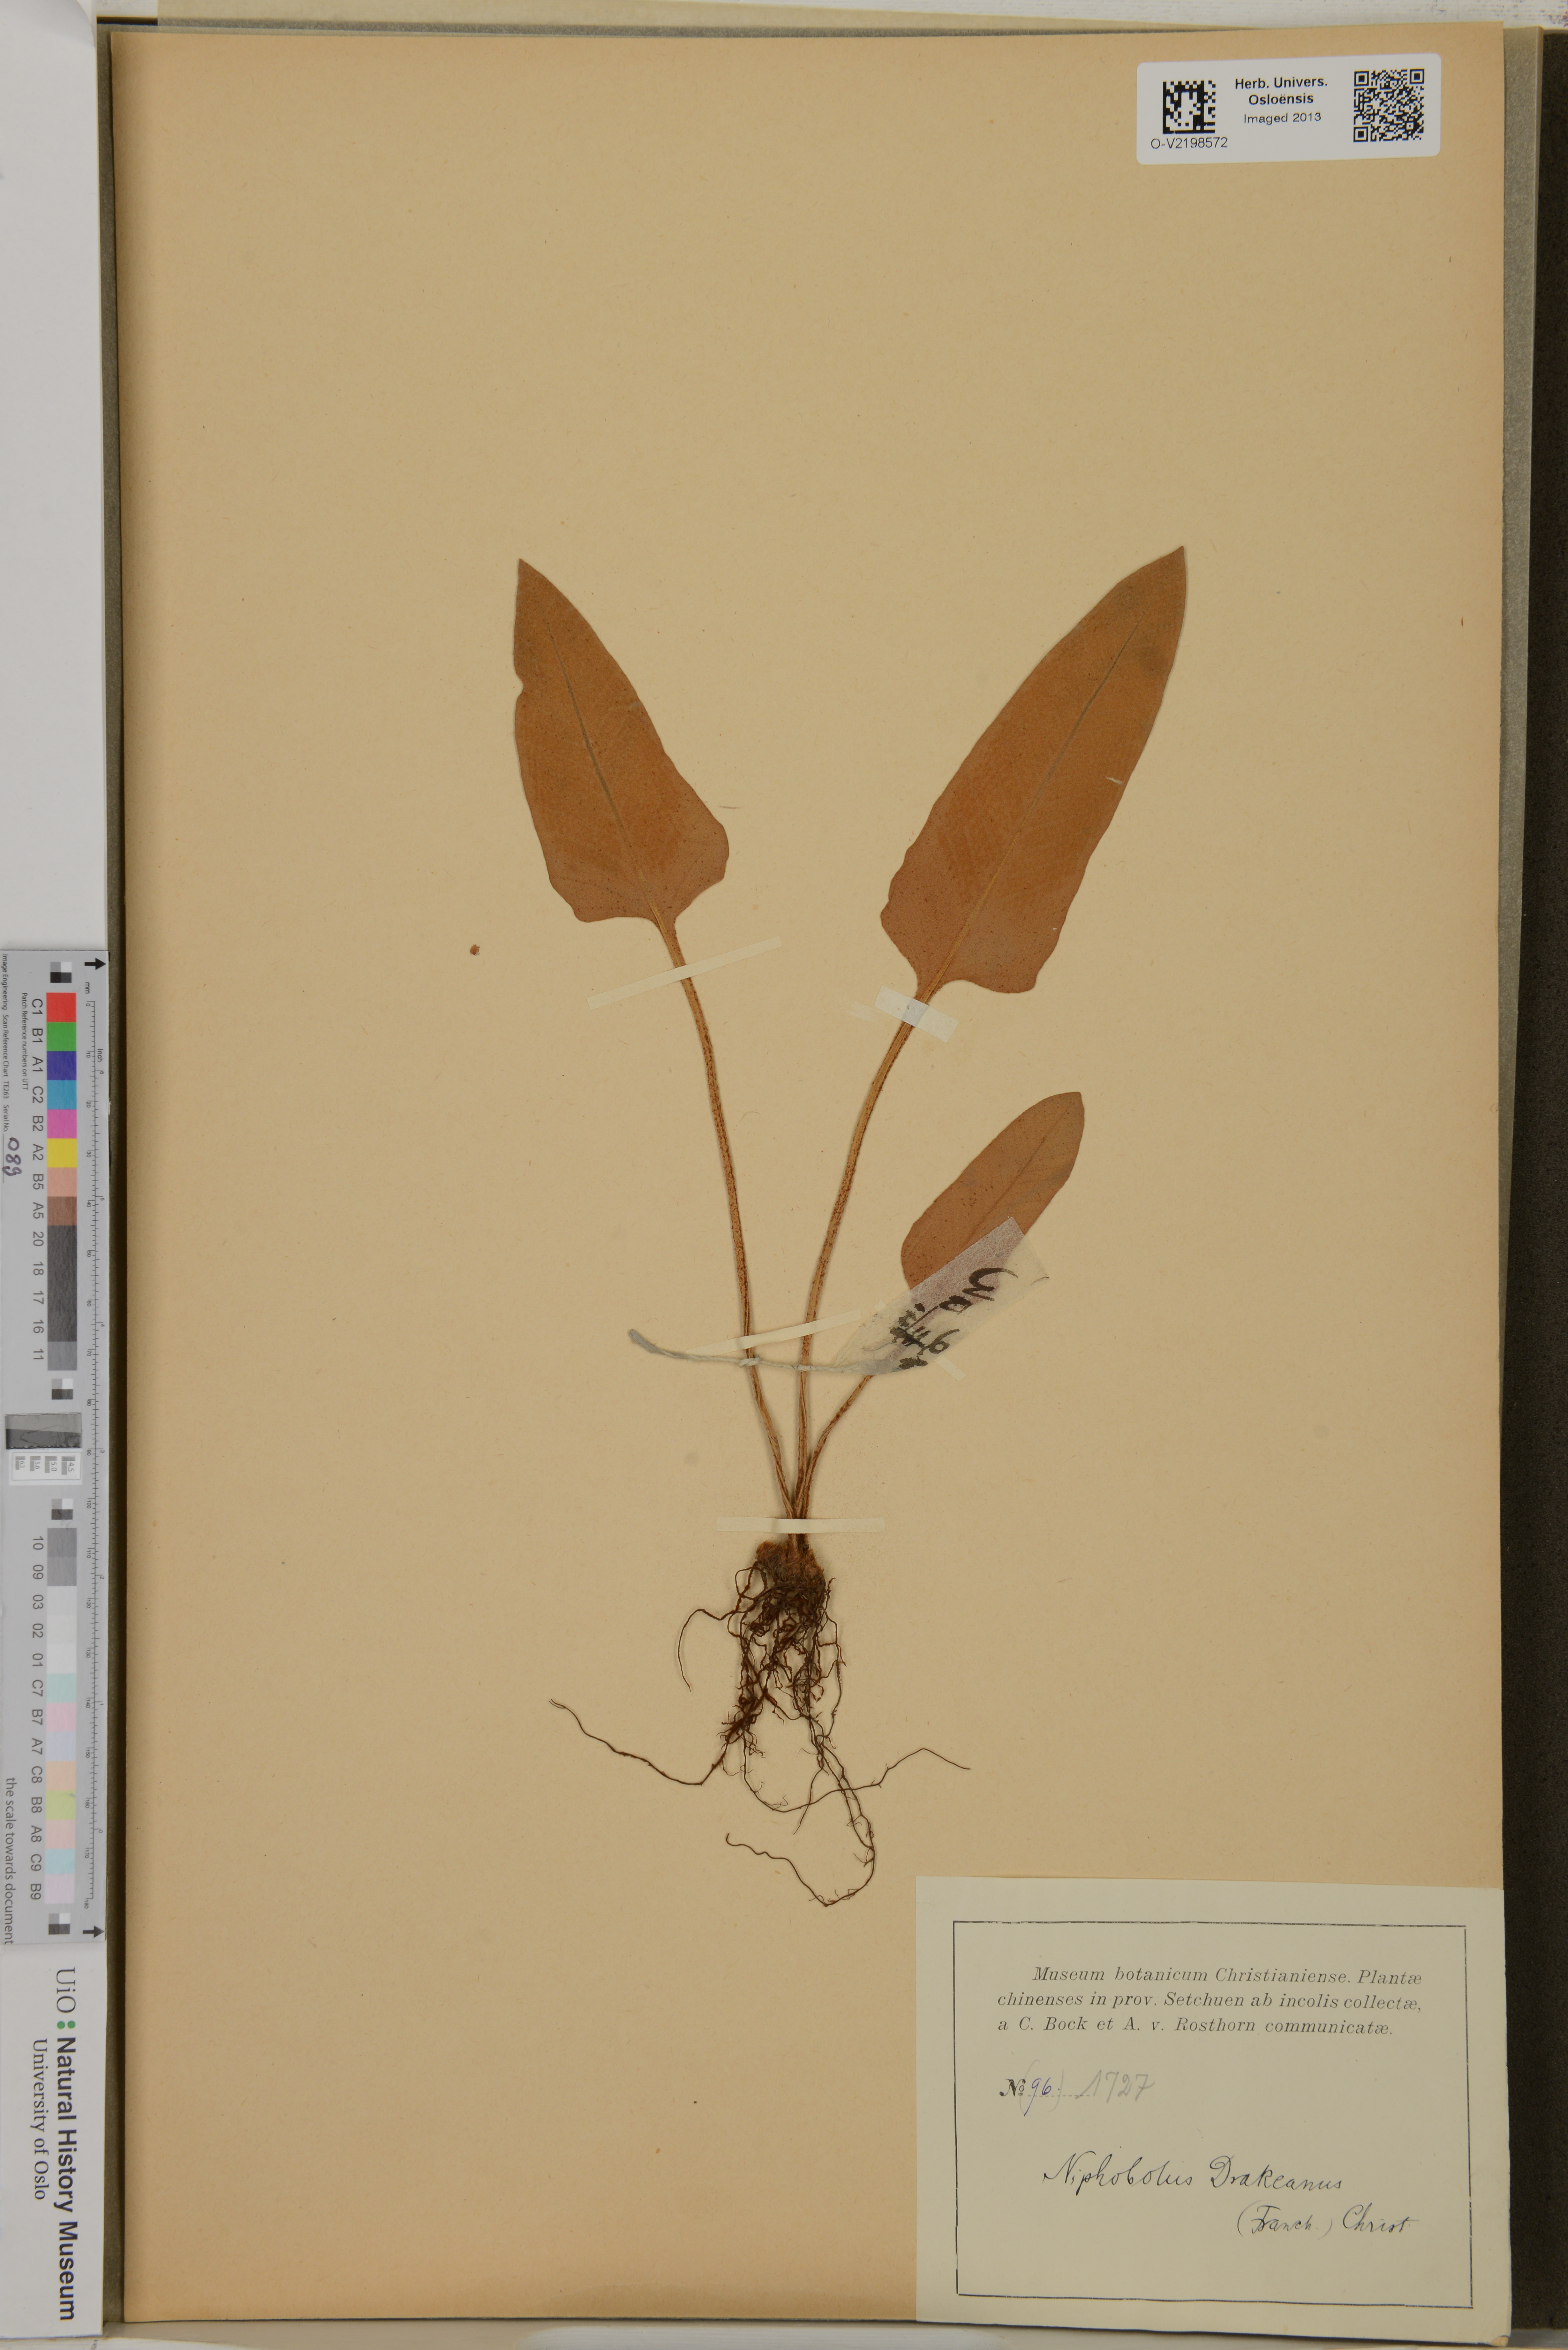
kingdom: Plantae
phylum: Tracheophyta
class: Polypodiopsida
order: Polypodiales
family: Polypodiaceae
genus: Pyrrosia
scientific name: Pyrrosia drakeana
